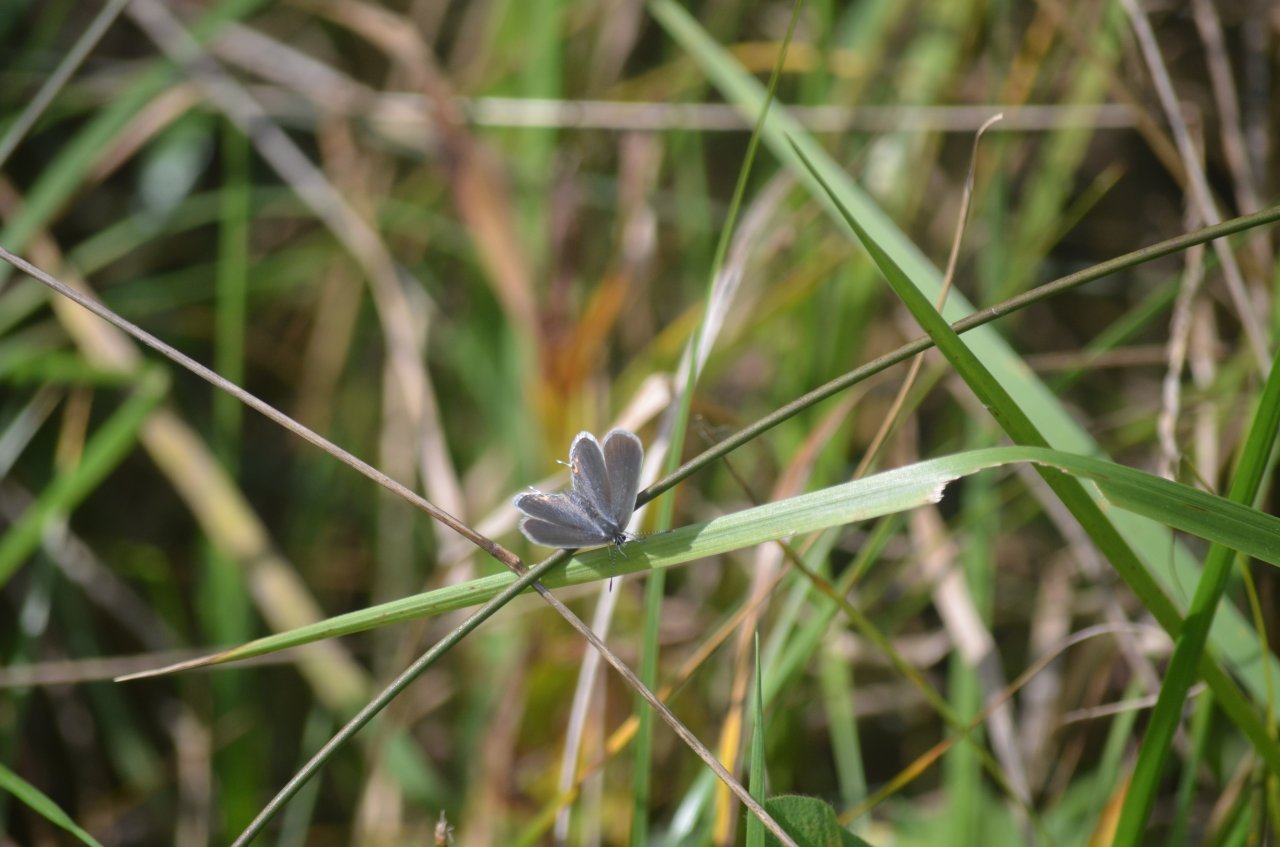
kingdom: Animalia
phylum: Arthropoda
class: Insecta
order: Lepidoptera
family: Lycaenidae
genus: Elkalyce
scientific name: Elkalyce comyntas
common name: Eastern Tailed-Blue
